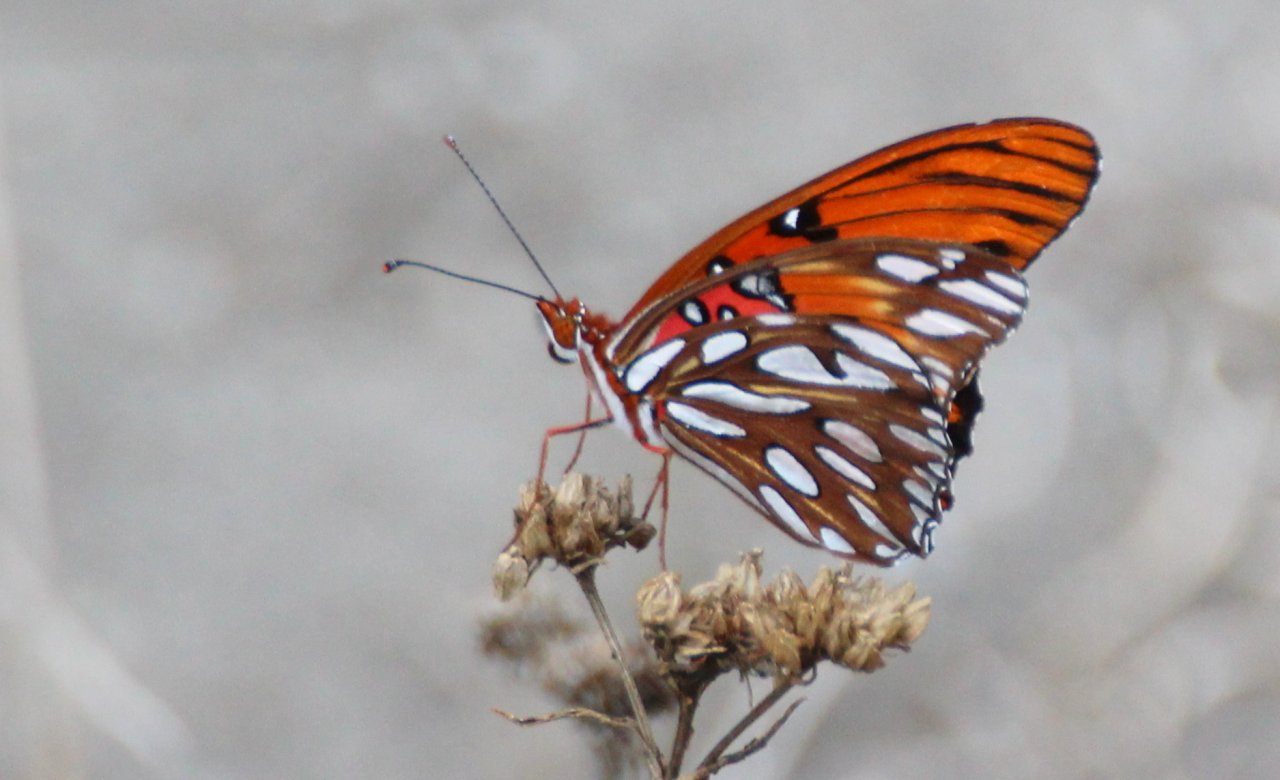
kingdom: Animalia
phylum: Arthropoda
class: Insecta
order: Lepidoptera
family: Nymphalidae
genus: Dione
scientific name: Dione vanillae
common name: Gulf Fritillary
